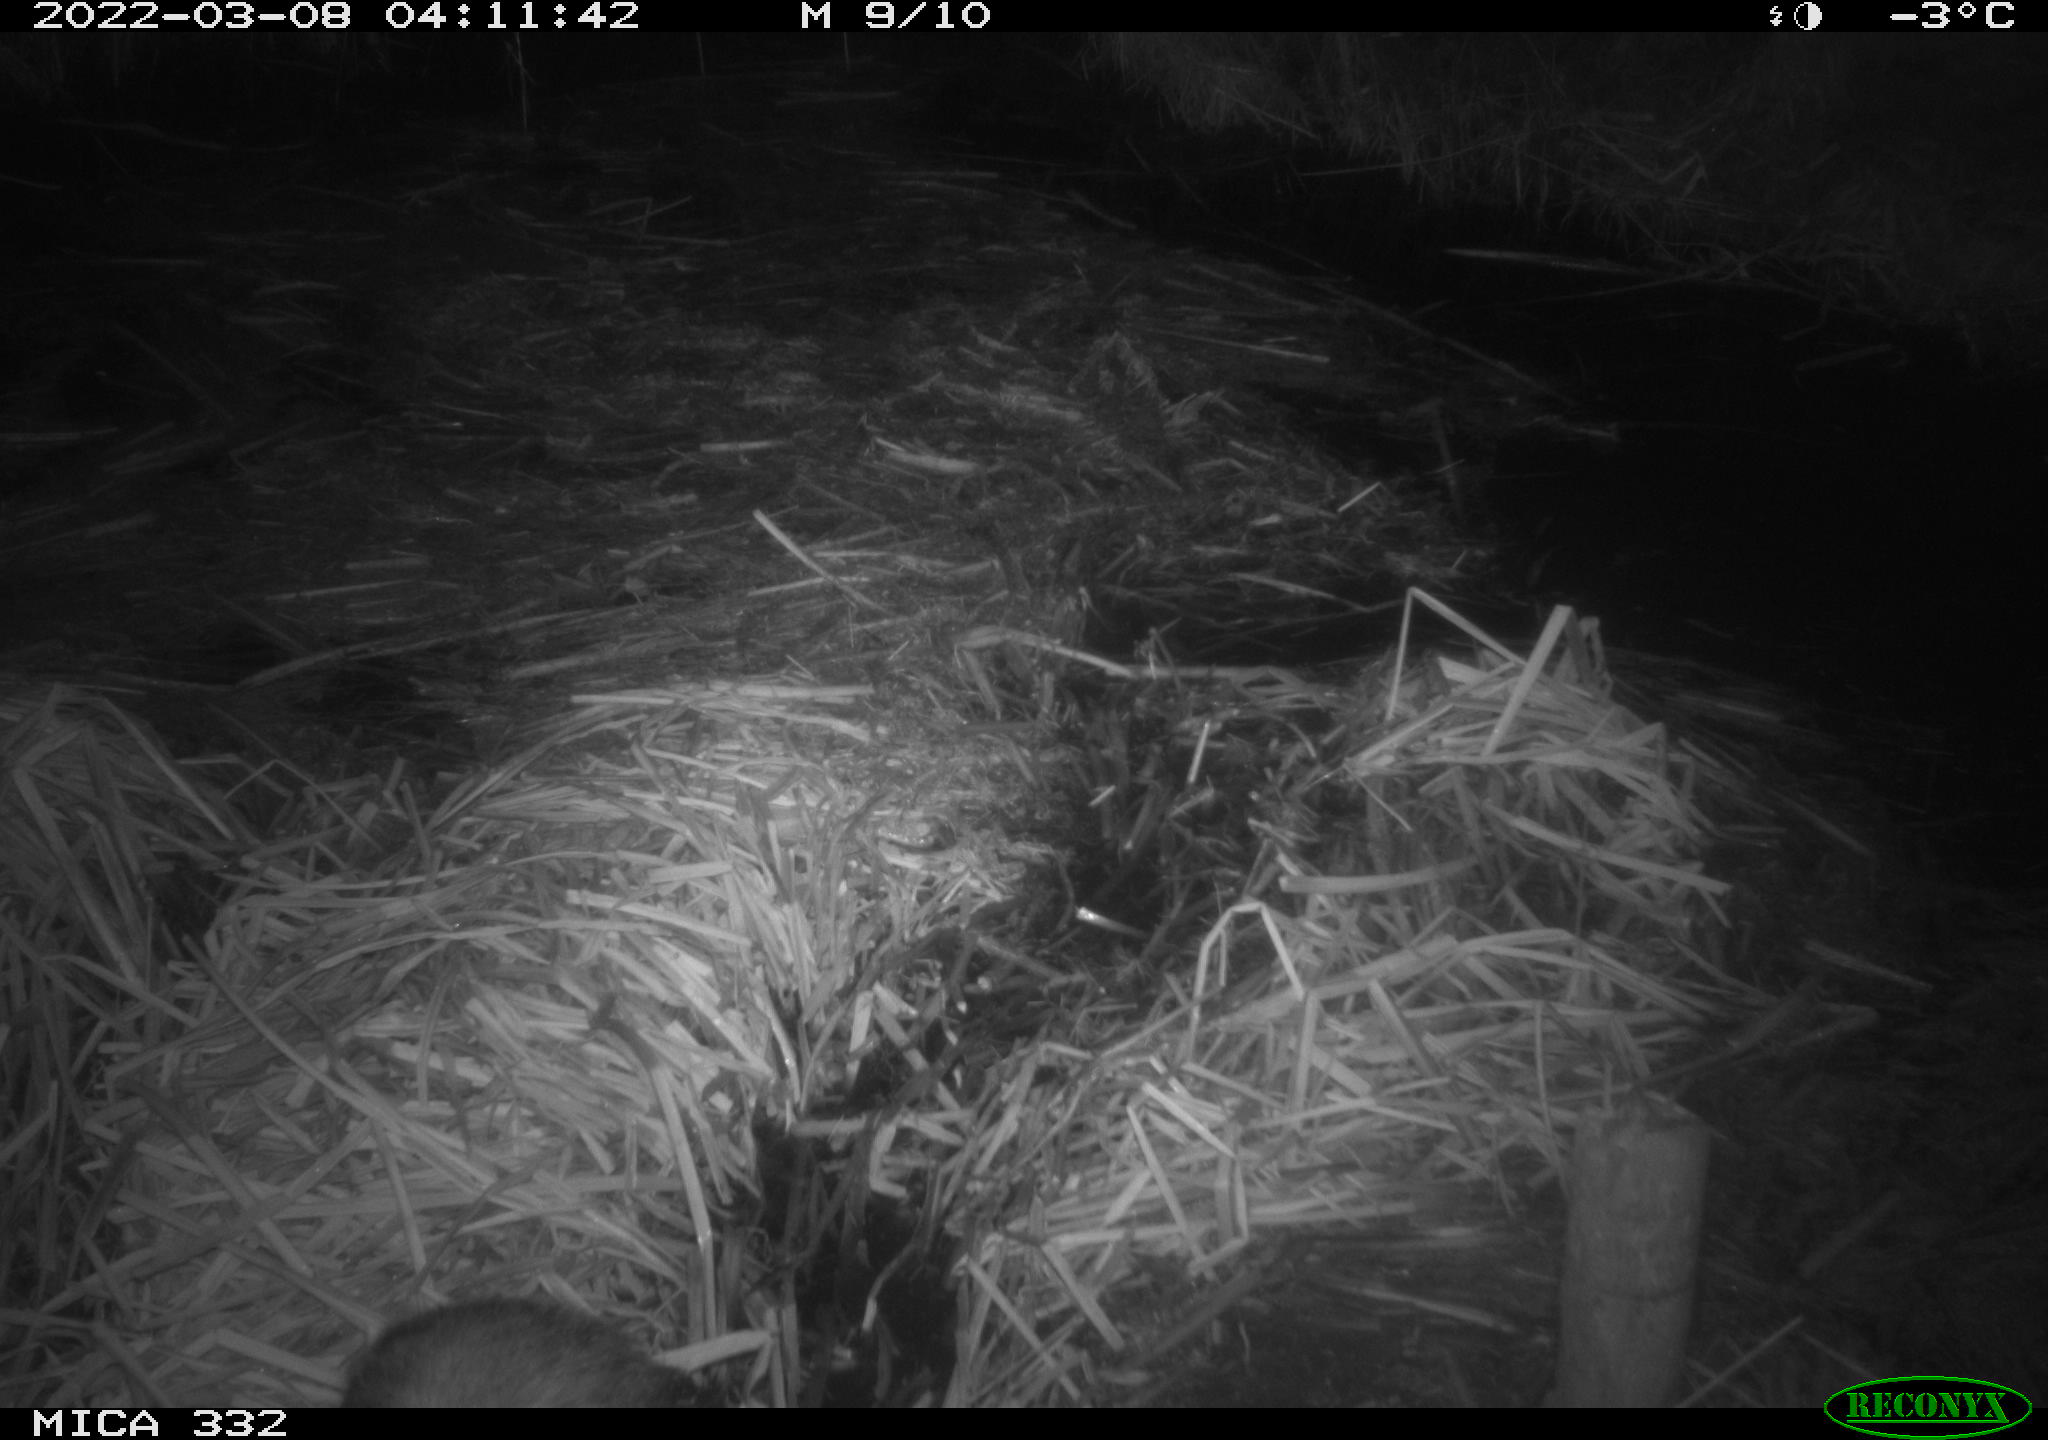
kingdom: Animalia
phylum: Chordata
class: Mammalia
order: Carnivora
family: Mustelidae
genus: Meles
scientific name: Meles meles
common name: Eurasian badger
